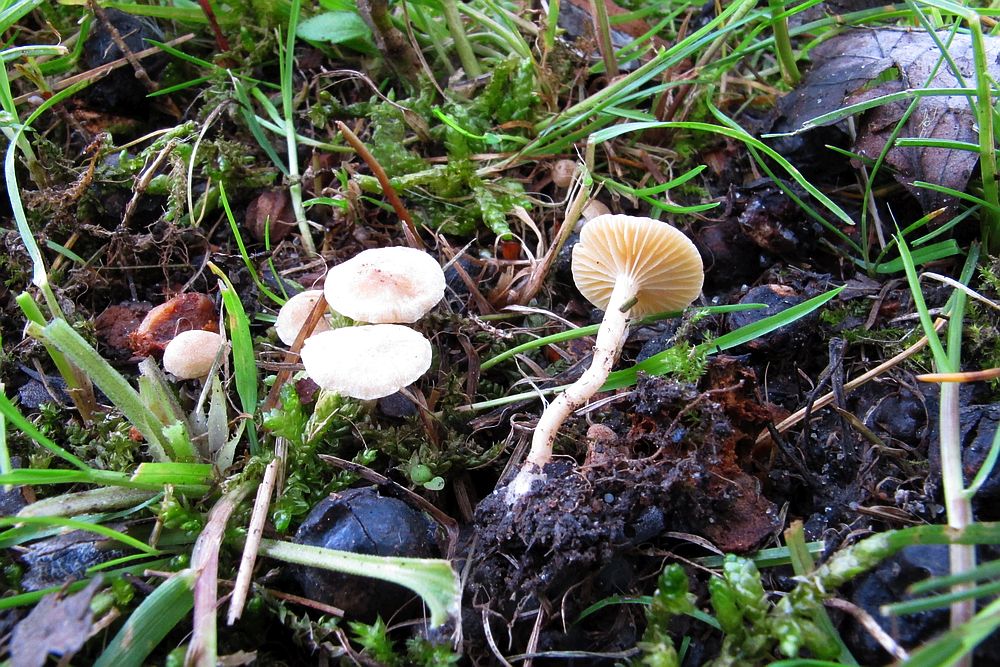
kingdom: Fungi
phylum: Basidiomycota
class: Agaricomycetes
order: Agaricales
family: Tubariaceae
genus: Tubaria
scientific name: Tubaria dispersa
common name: tjørne-fnughat
